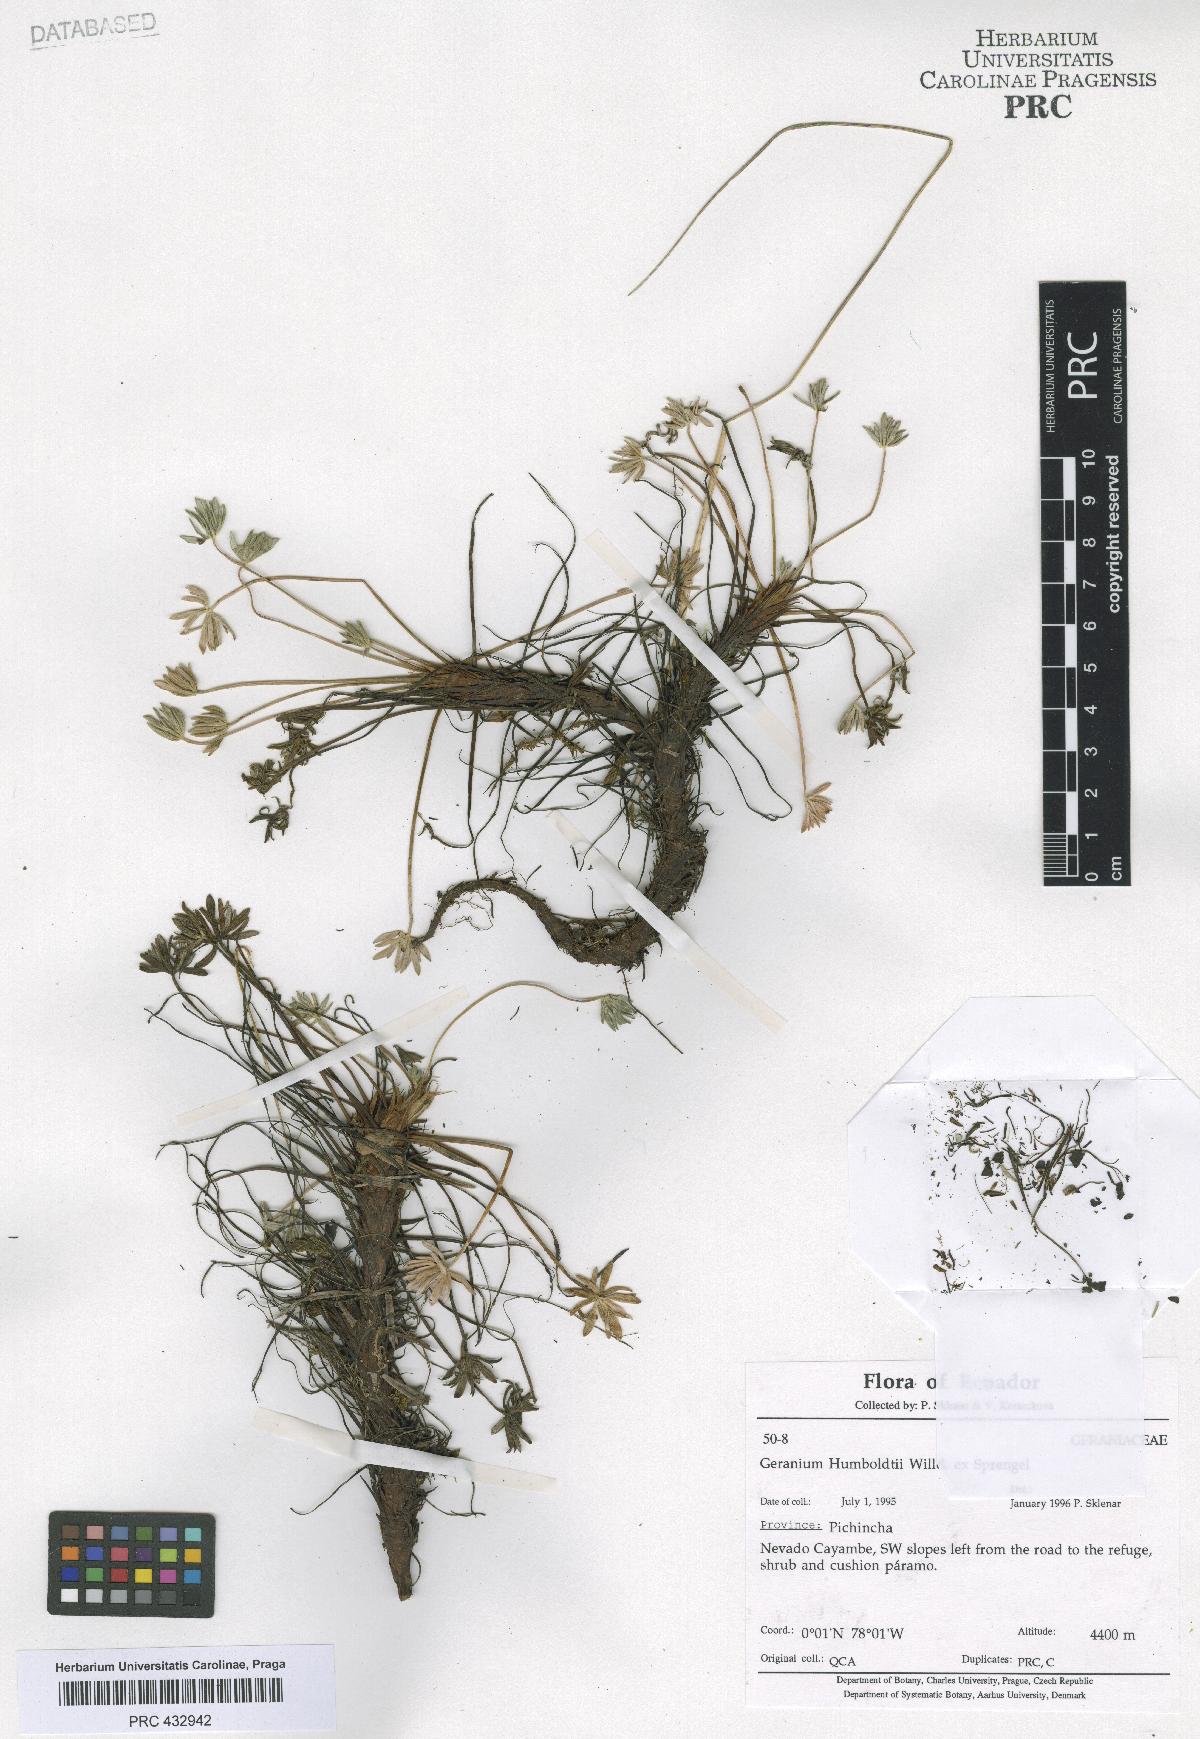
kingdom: Plantae
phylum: Tracheophyta
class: Magnoliopsida
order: Geraniales
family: Geraniaceae
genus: Geranium
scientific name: Geranium humboldtii
